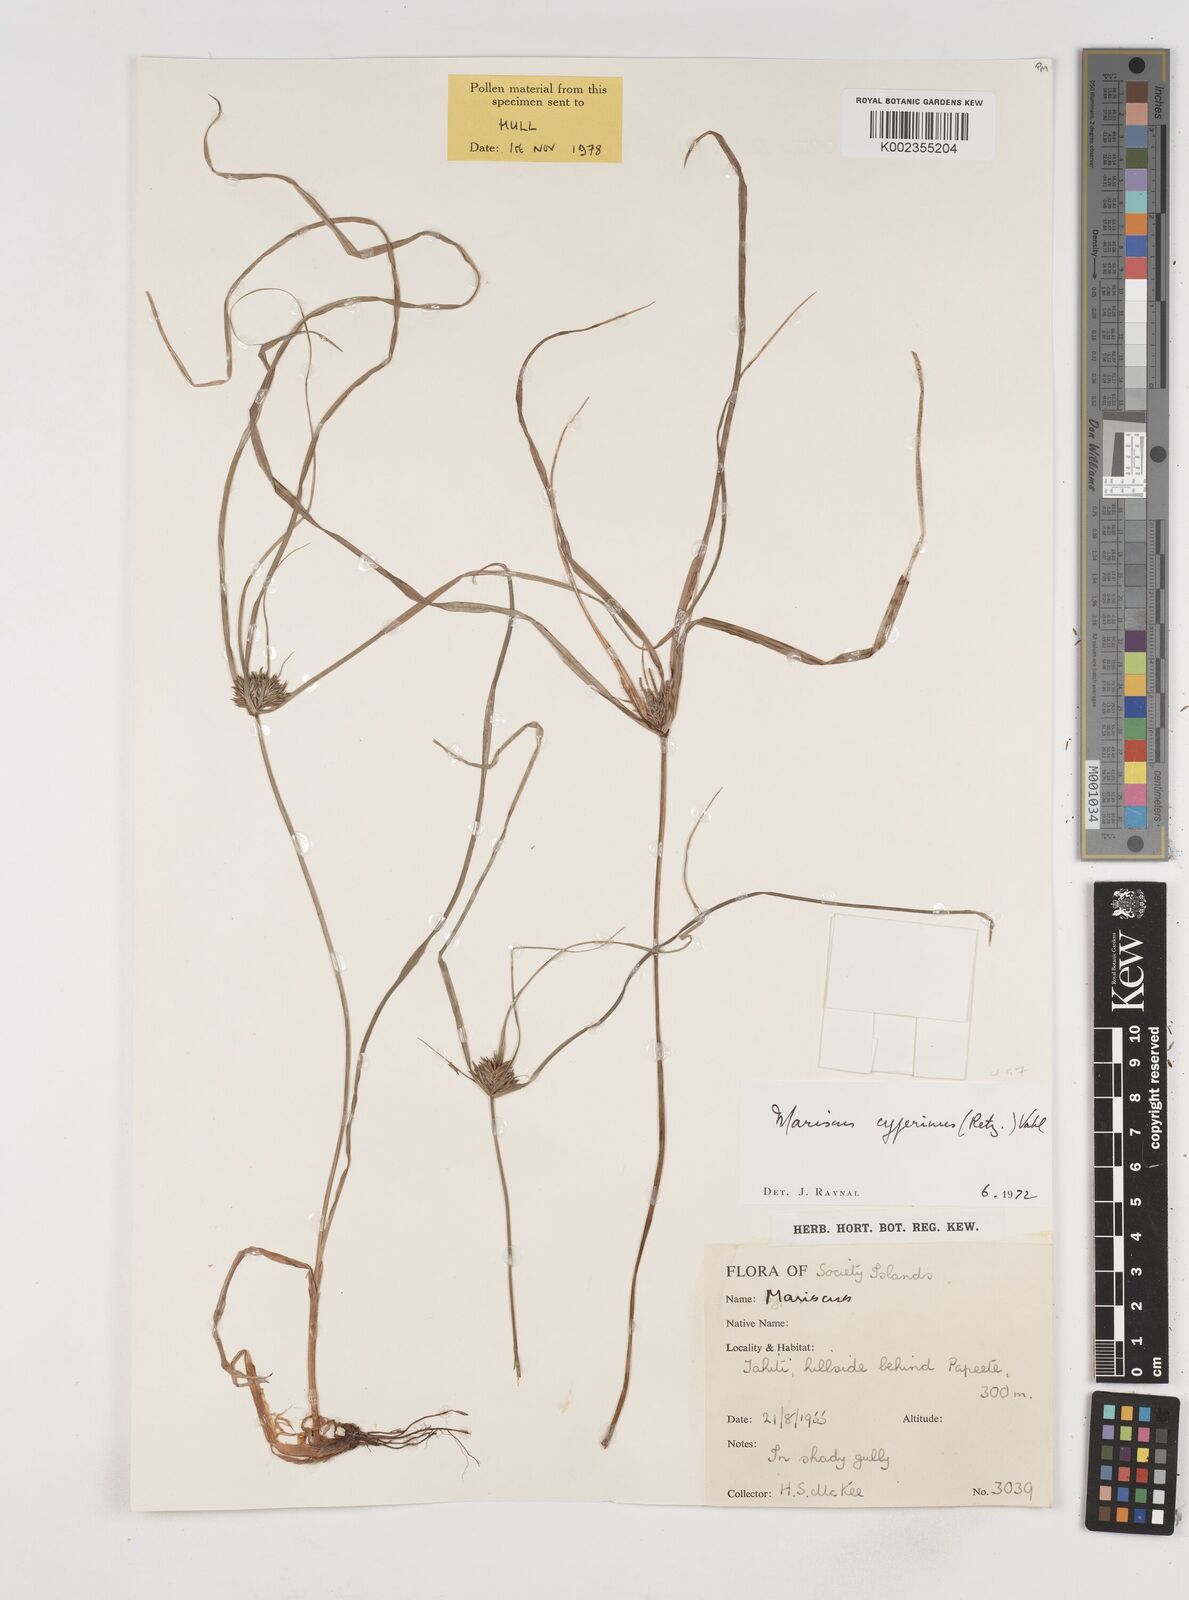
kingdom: Plantae
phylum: Tracheophyta
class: Liliopsida
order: Poales
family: Cyperaceae
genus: Cyperus
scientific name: Cyperus cyperinus
